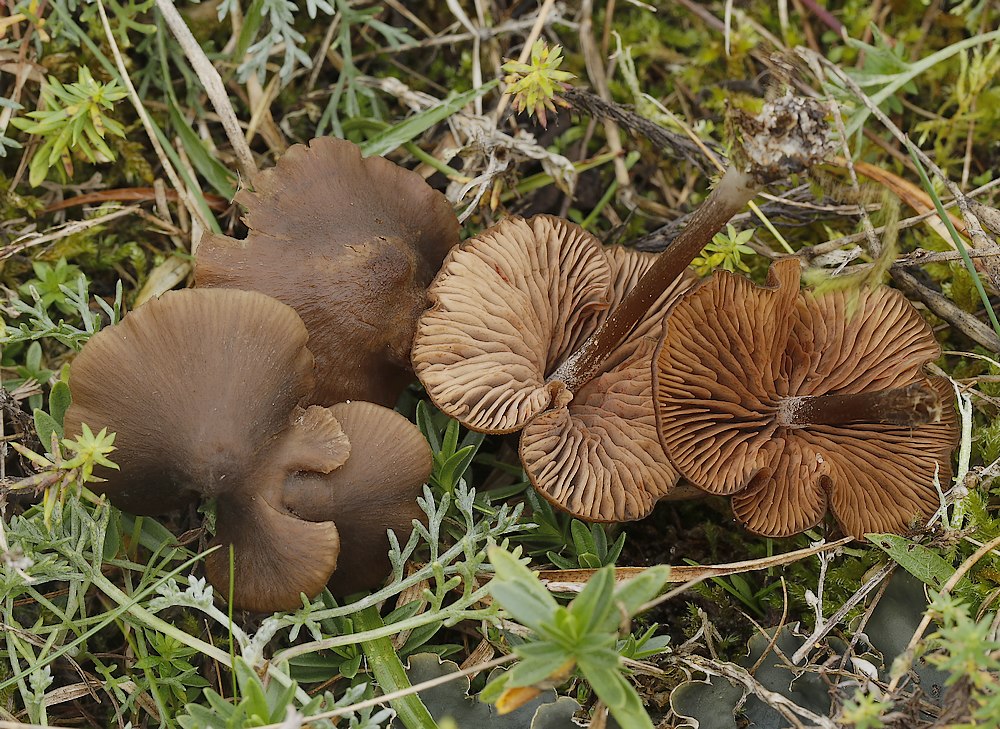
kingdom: Fungi
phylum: Basidiomycota
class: Agaricomycetes
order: Agaricales
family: Entolomataceae
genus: Entoloma
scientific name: Entoloma
